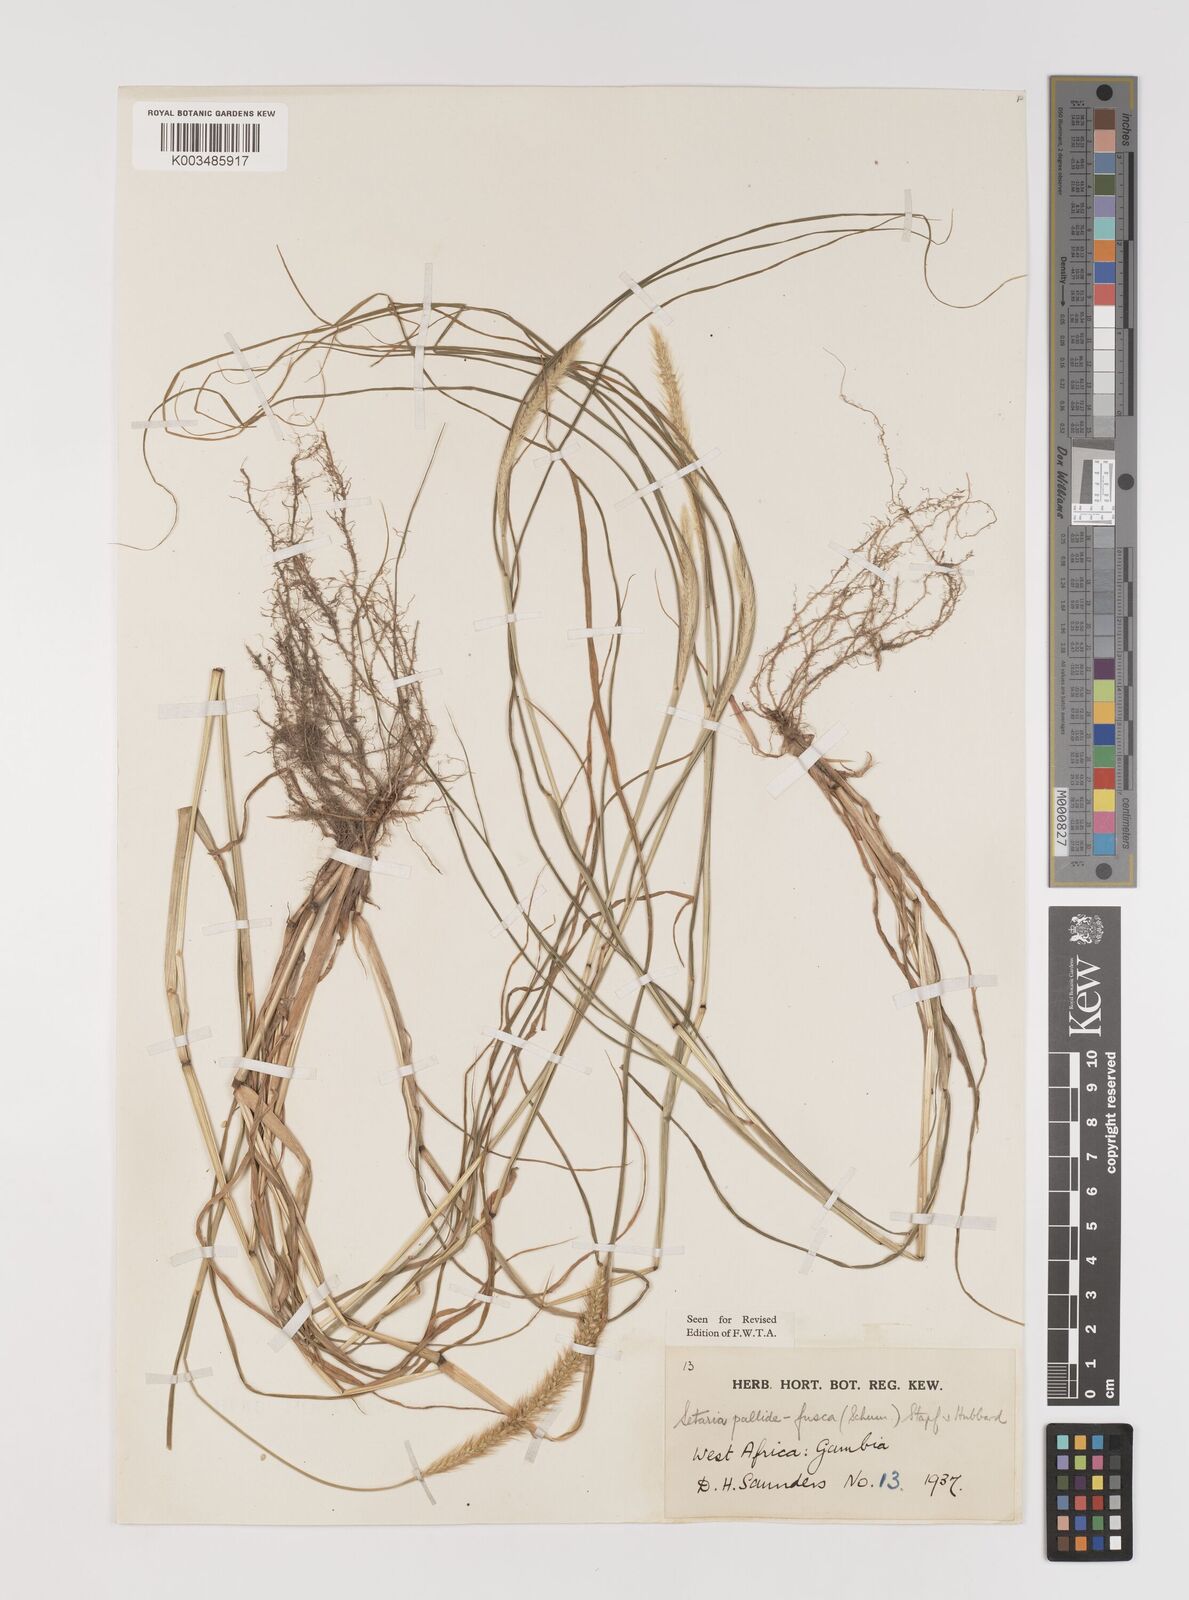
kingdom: Plantae
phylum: Tracheophyta
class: Liliopsida
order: Poales
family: Poaceae
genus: Setaria
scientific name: Setaria pumila
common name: Yellow bristle-grass
